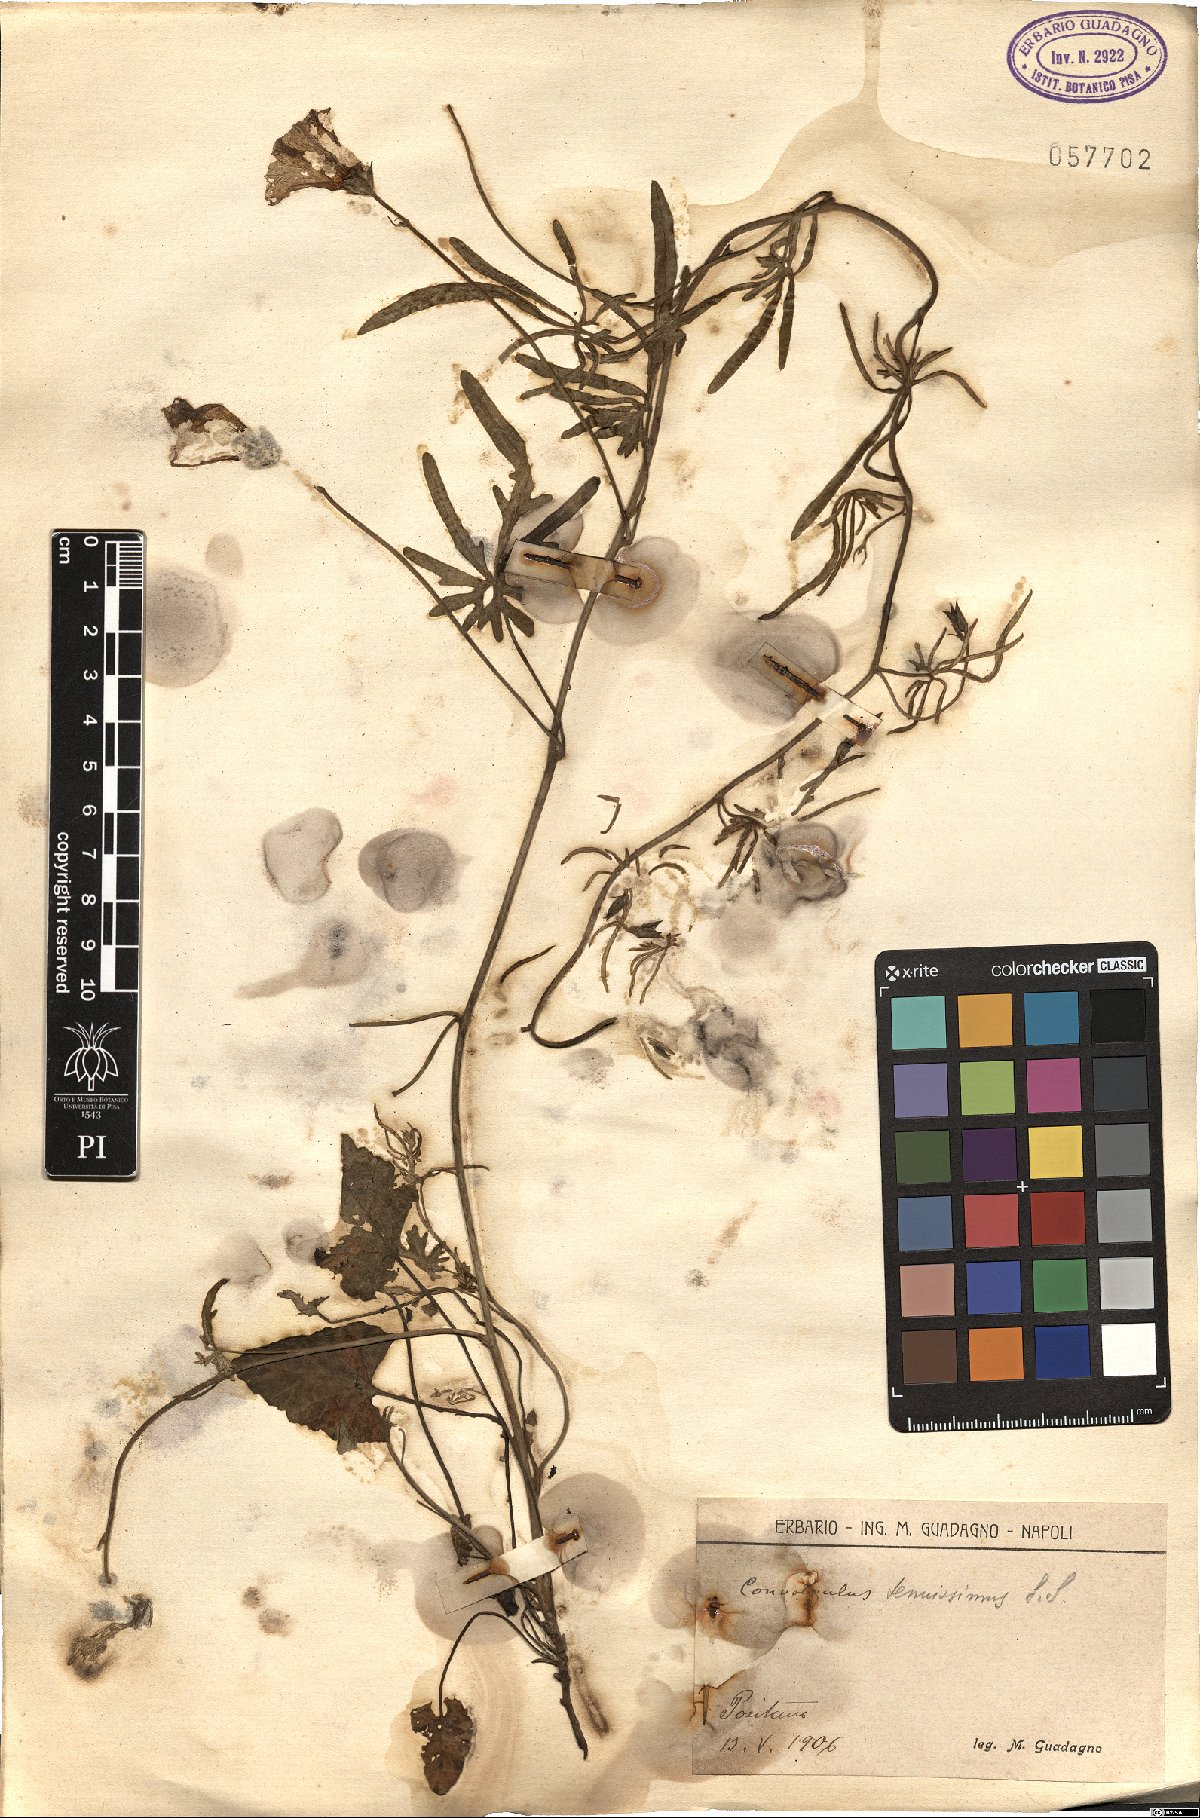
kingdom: Plantae
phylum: Tracheophyta
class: Magnoliopsida
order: Solanales
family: Convolvulaceae
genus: Convolvulus
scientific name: Convolvulus elegantissimus
